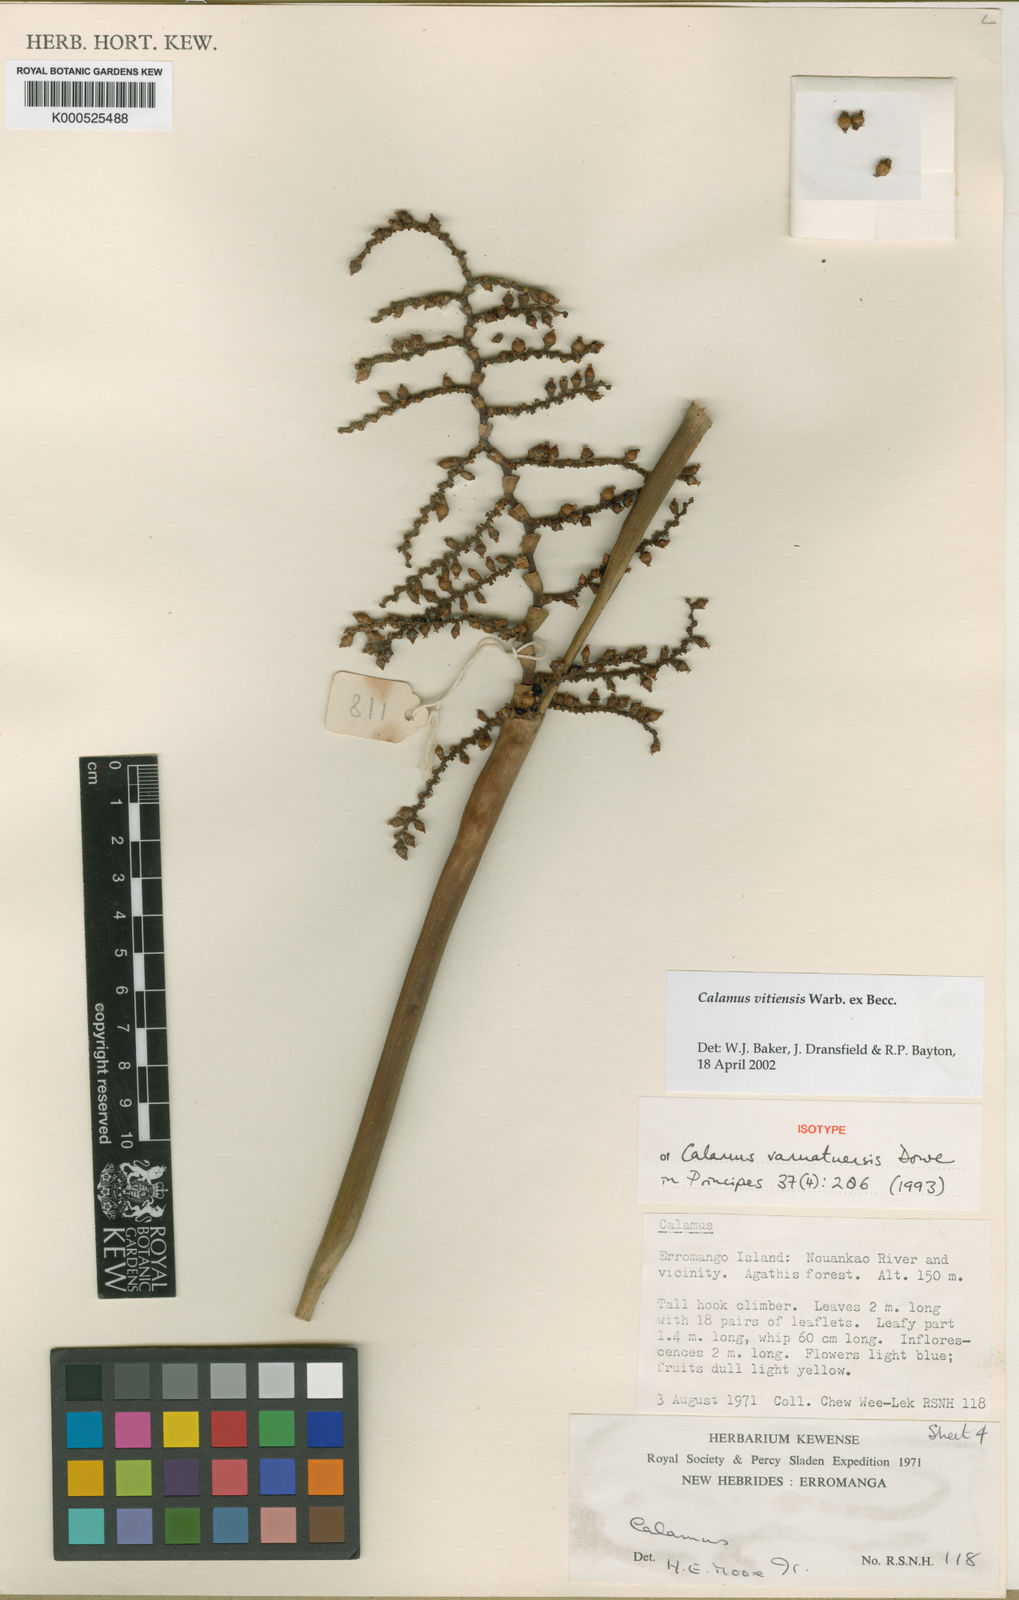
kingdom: Plantae
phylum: Tracheophyta
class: Liliopsida
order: Arecales
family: Arecaceae
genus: Calamus
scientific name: Calamus vitiensis
